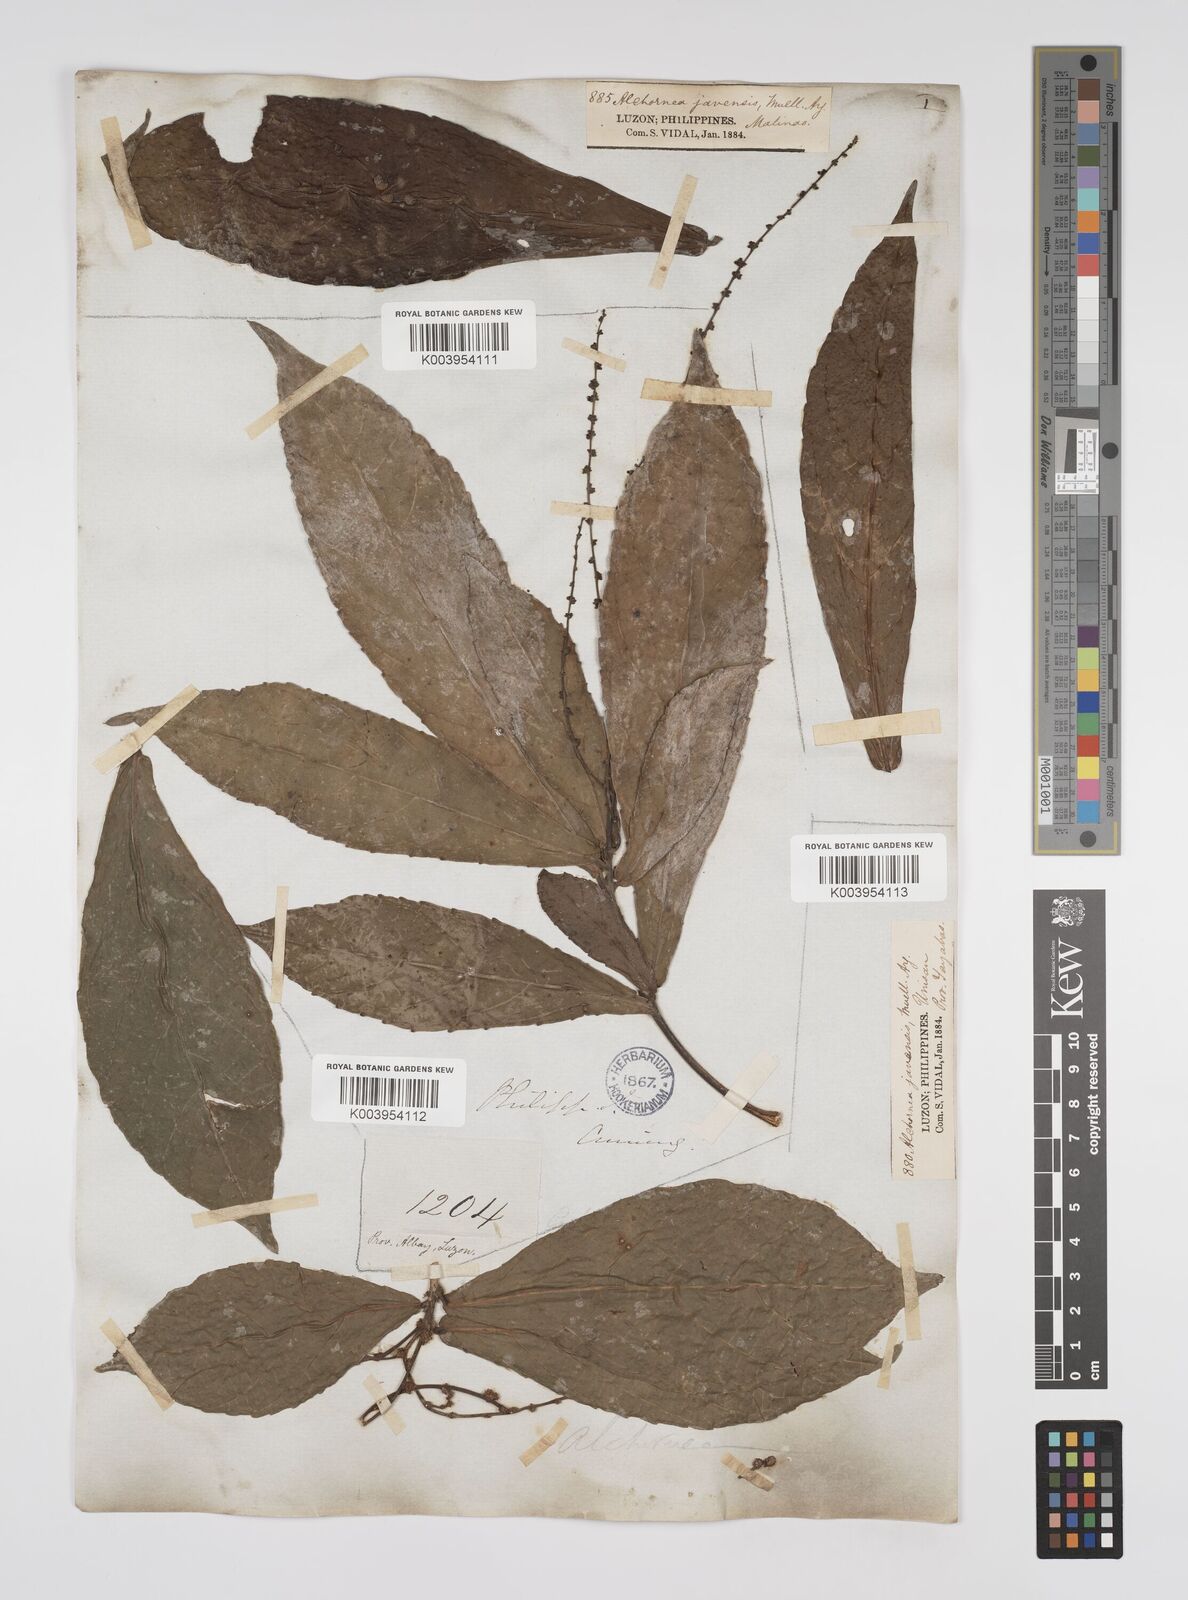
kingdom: Plantae
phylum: Tracheophyta
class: Magnoliopsida
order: Malpighiales
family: Euphorbiaceae
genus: Alchornea
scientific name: Alchornea rugosa
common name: Alchorntree
